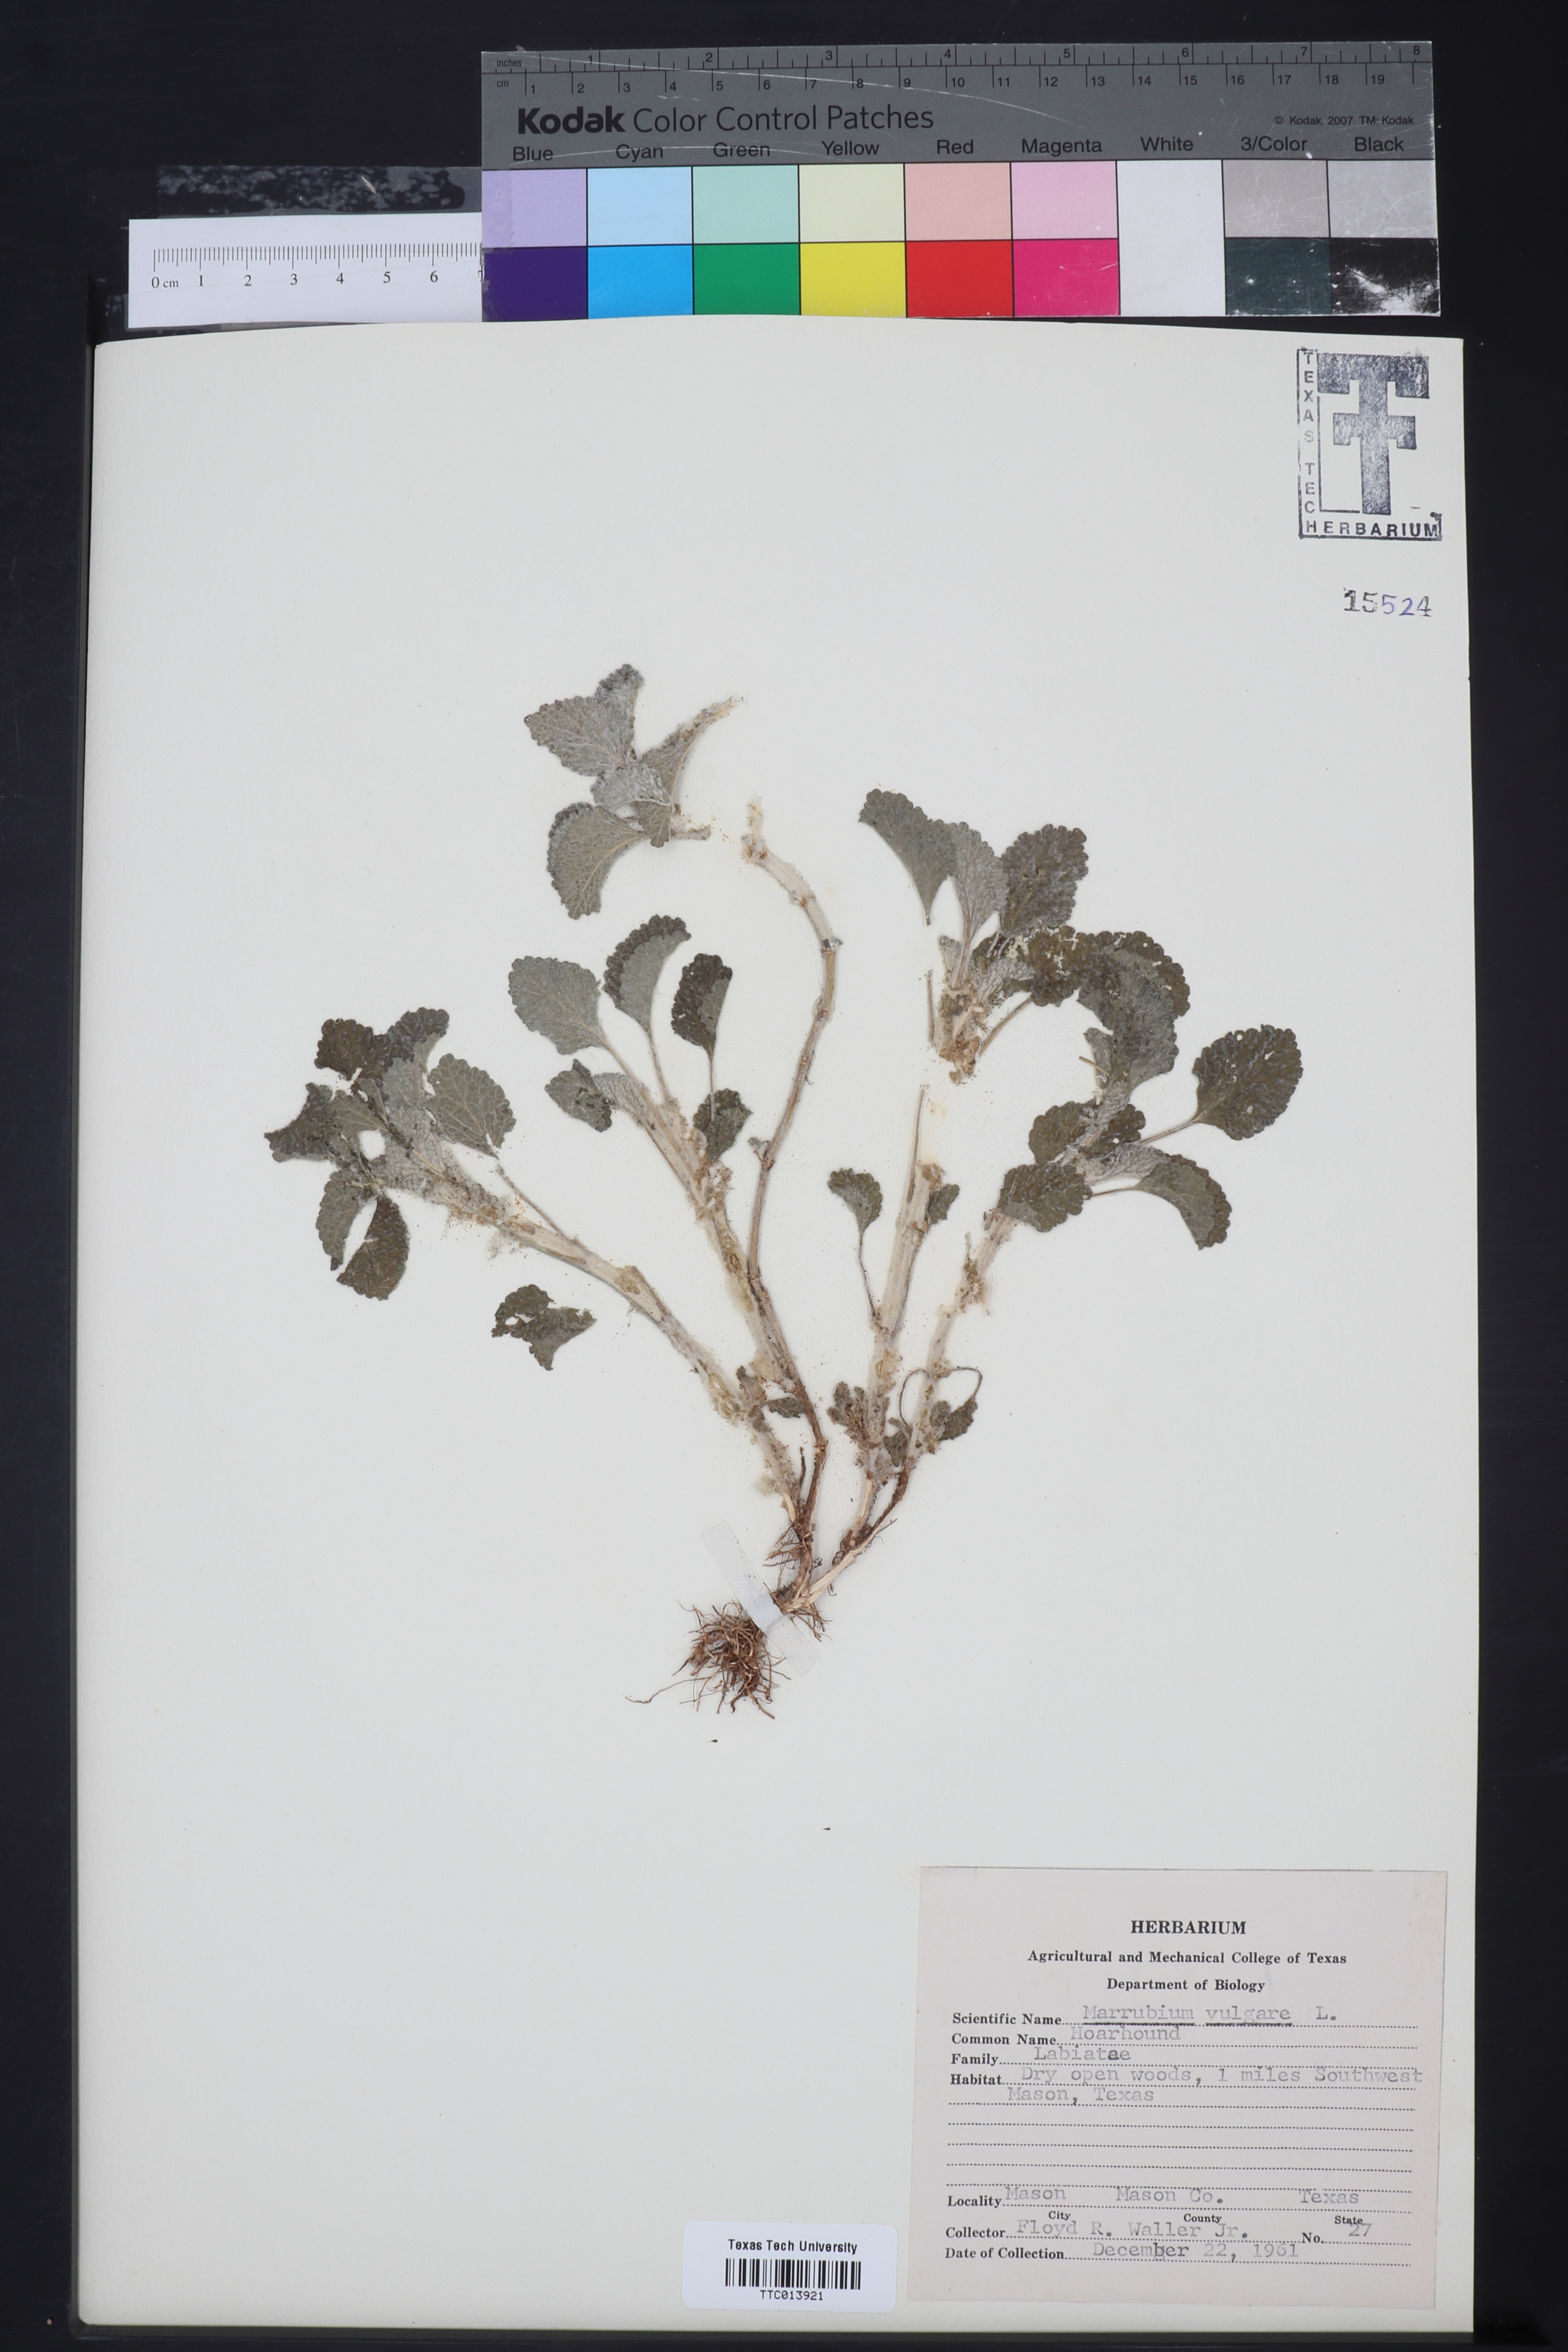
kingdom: Plantae
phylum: Tracheophyta
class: Magnoliopsida
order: Lamiales
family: Lamiaceae
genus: Marrubium
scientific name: Marrubium vulgare
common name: Horehound
